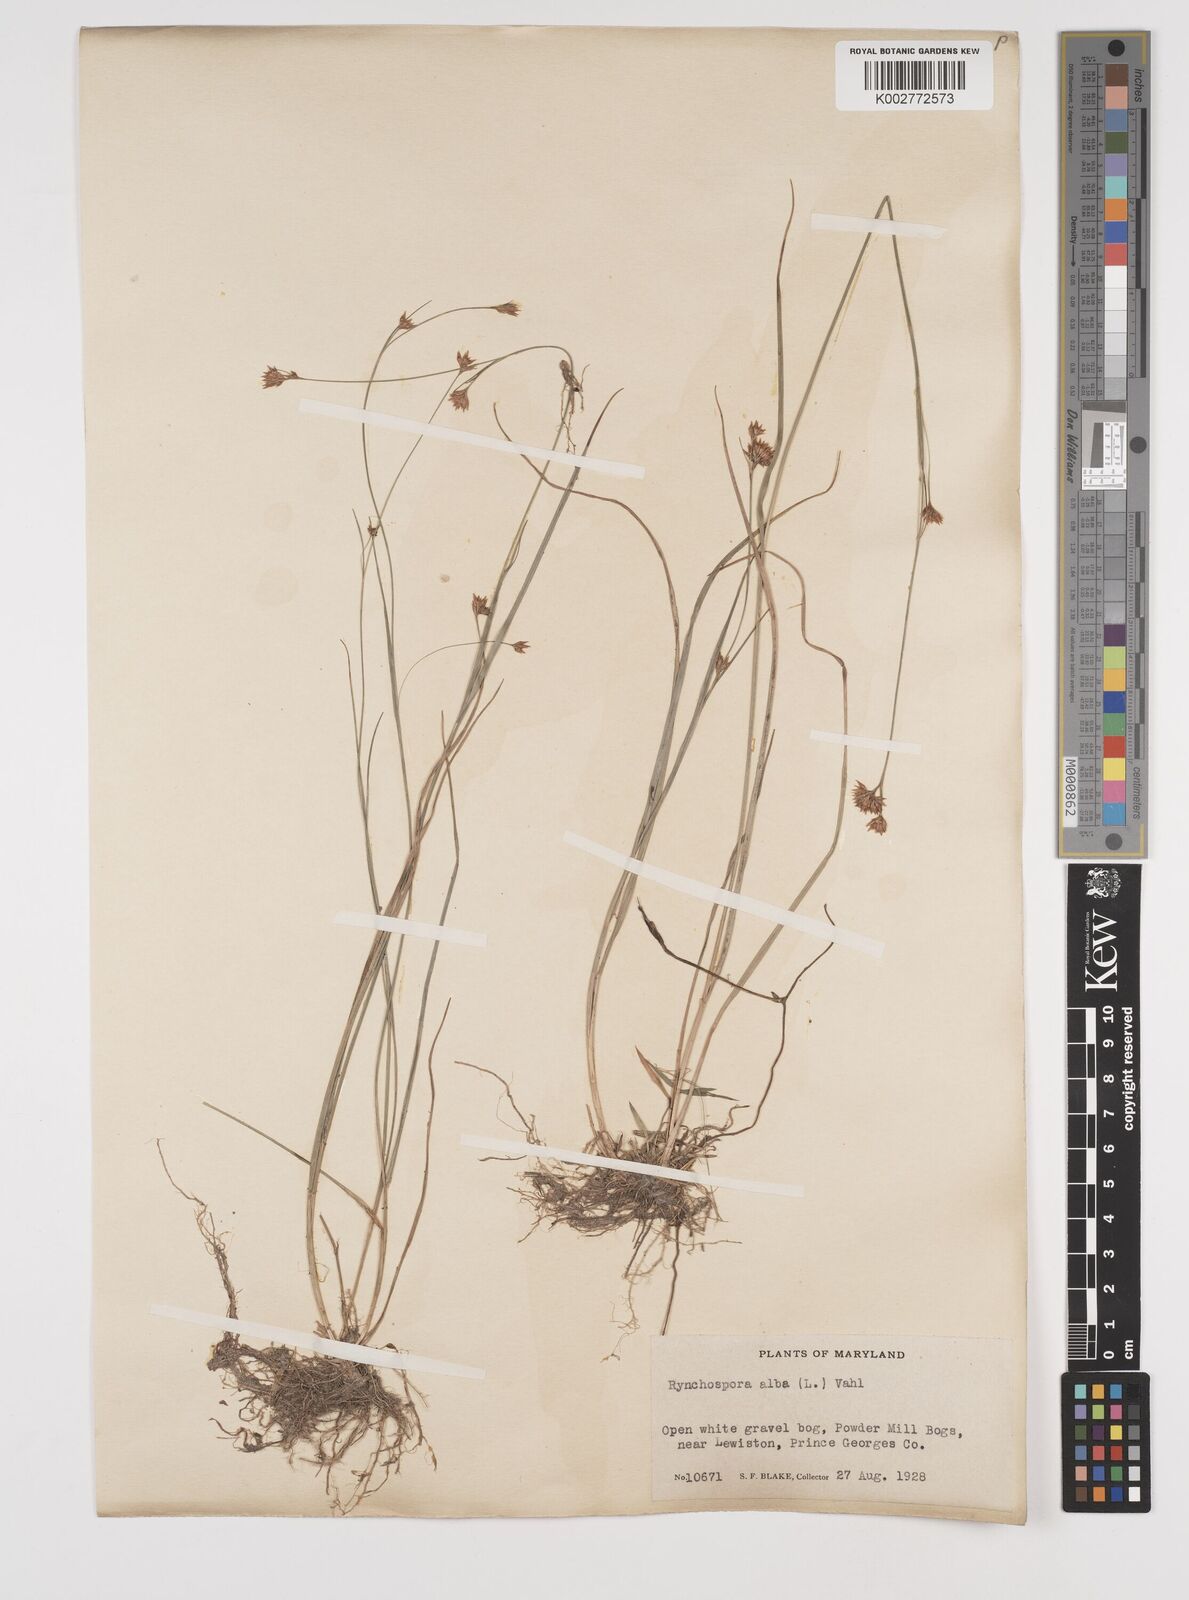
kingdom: Plantae
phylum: Tracheophyta
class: Liliopsida
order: Poales
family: Cyperaceae
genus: Rhynchospora
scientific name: Rhynchospora alba
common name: White beak-sedge
